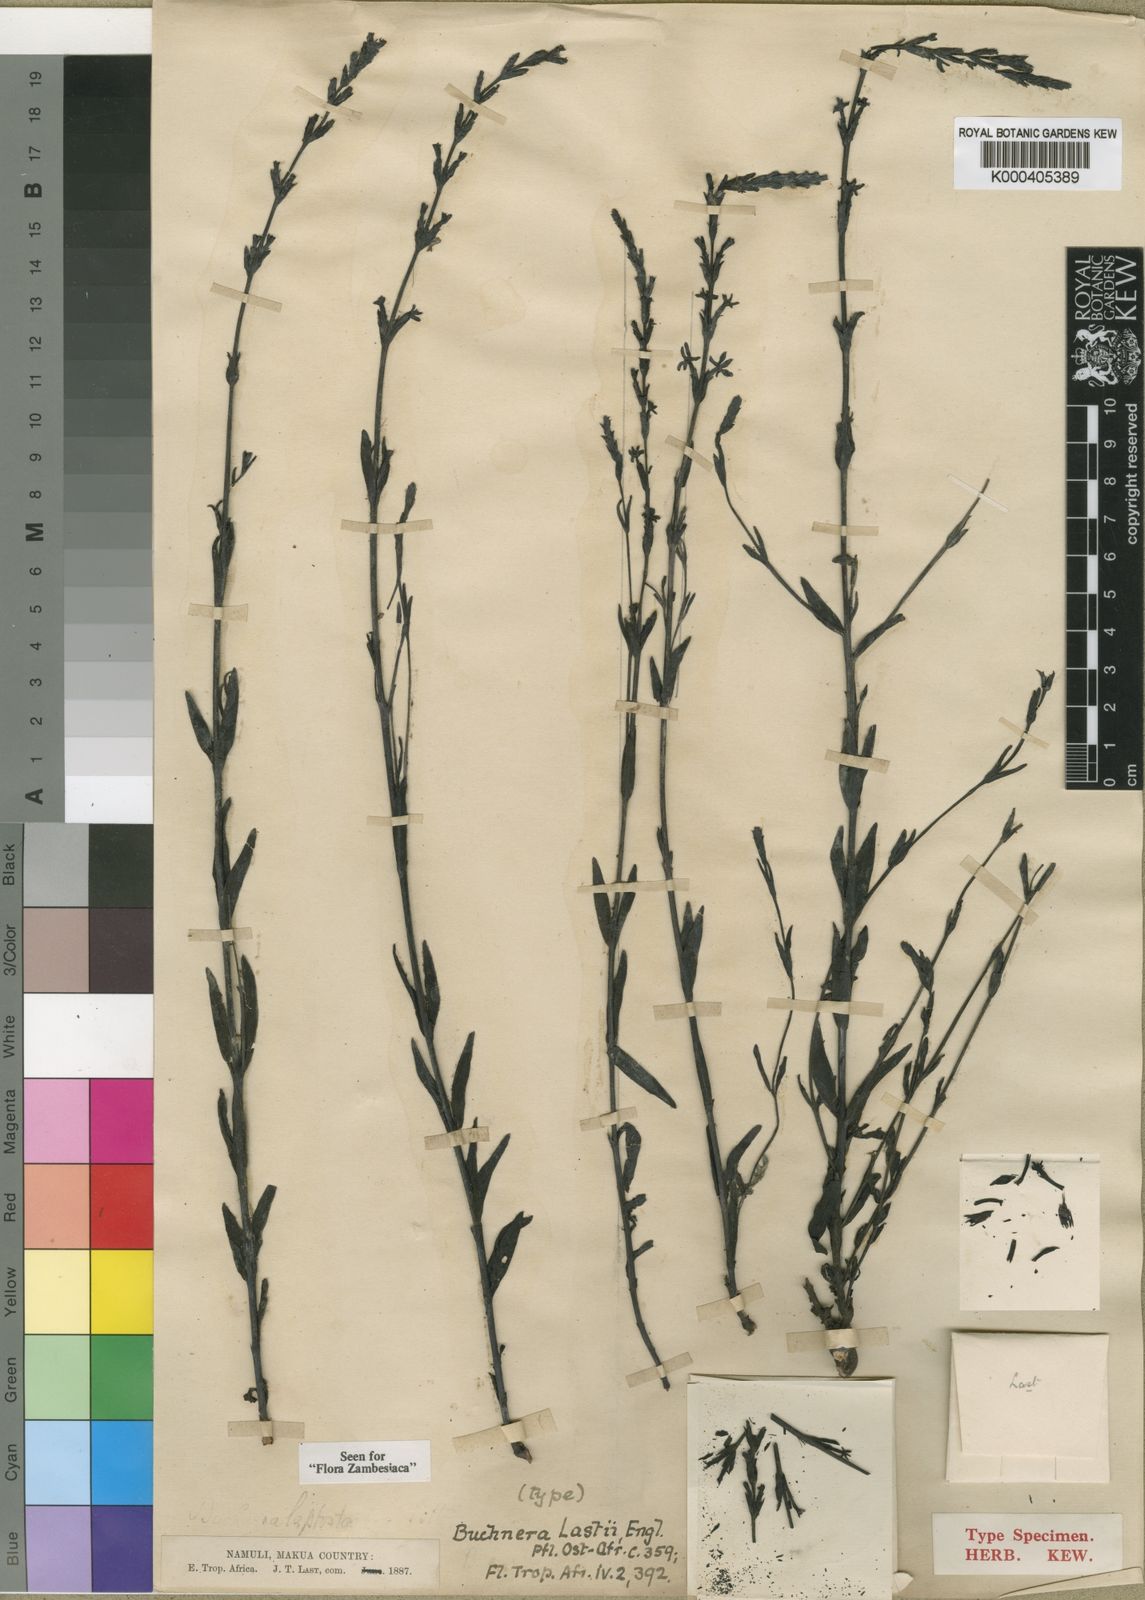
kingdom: Plantae
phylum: Tracheophyta
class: Magnoliopsida
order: Lamiales
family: Orobanchaceae
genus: Buchnera
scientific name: Buchnera lastii
